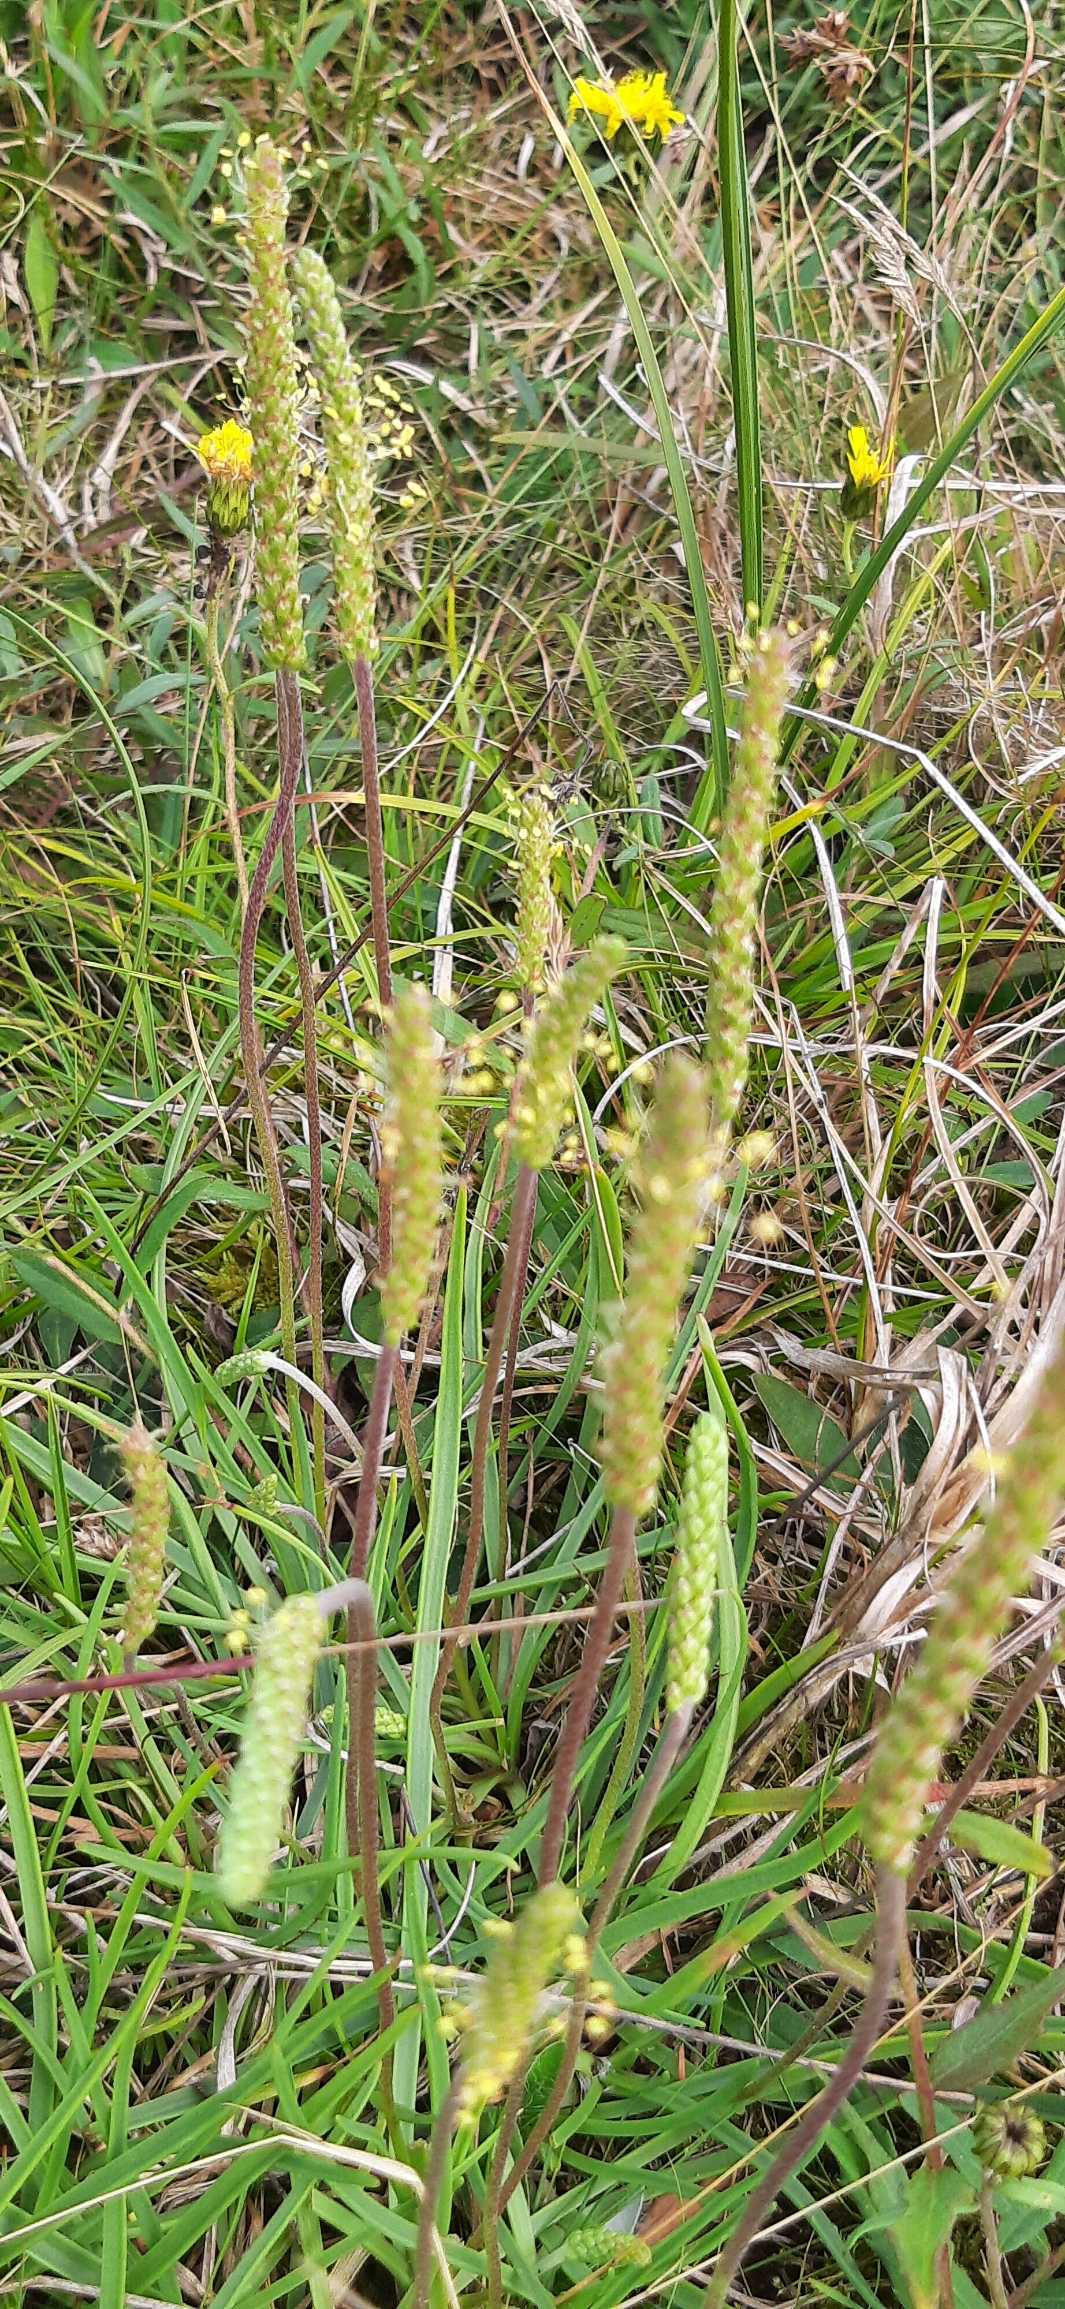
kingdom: Plantae
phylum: Tracheophyta
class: Magnoliopsida
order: Lamiales
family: Plantaginaceae
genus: Plantago
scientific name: Plantago maritima
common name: Strand-vejbred
